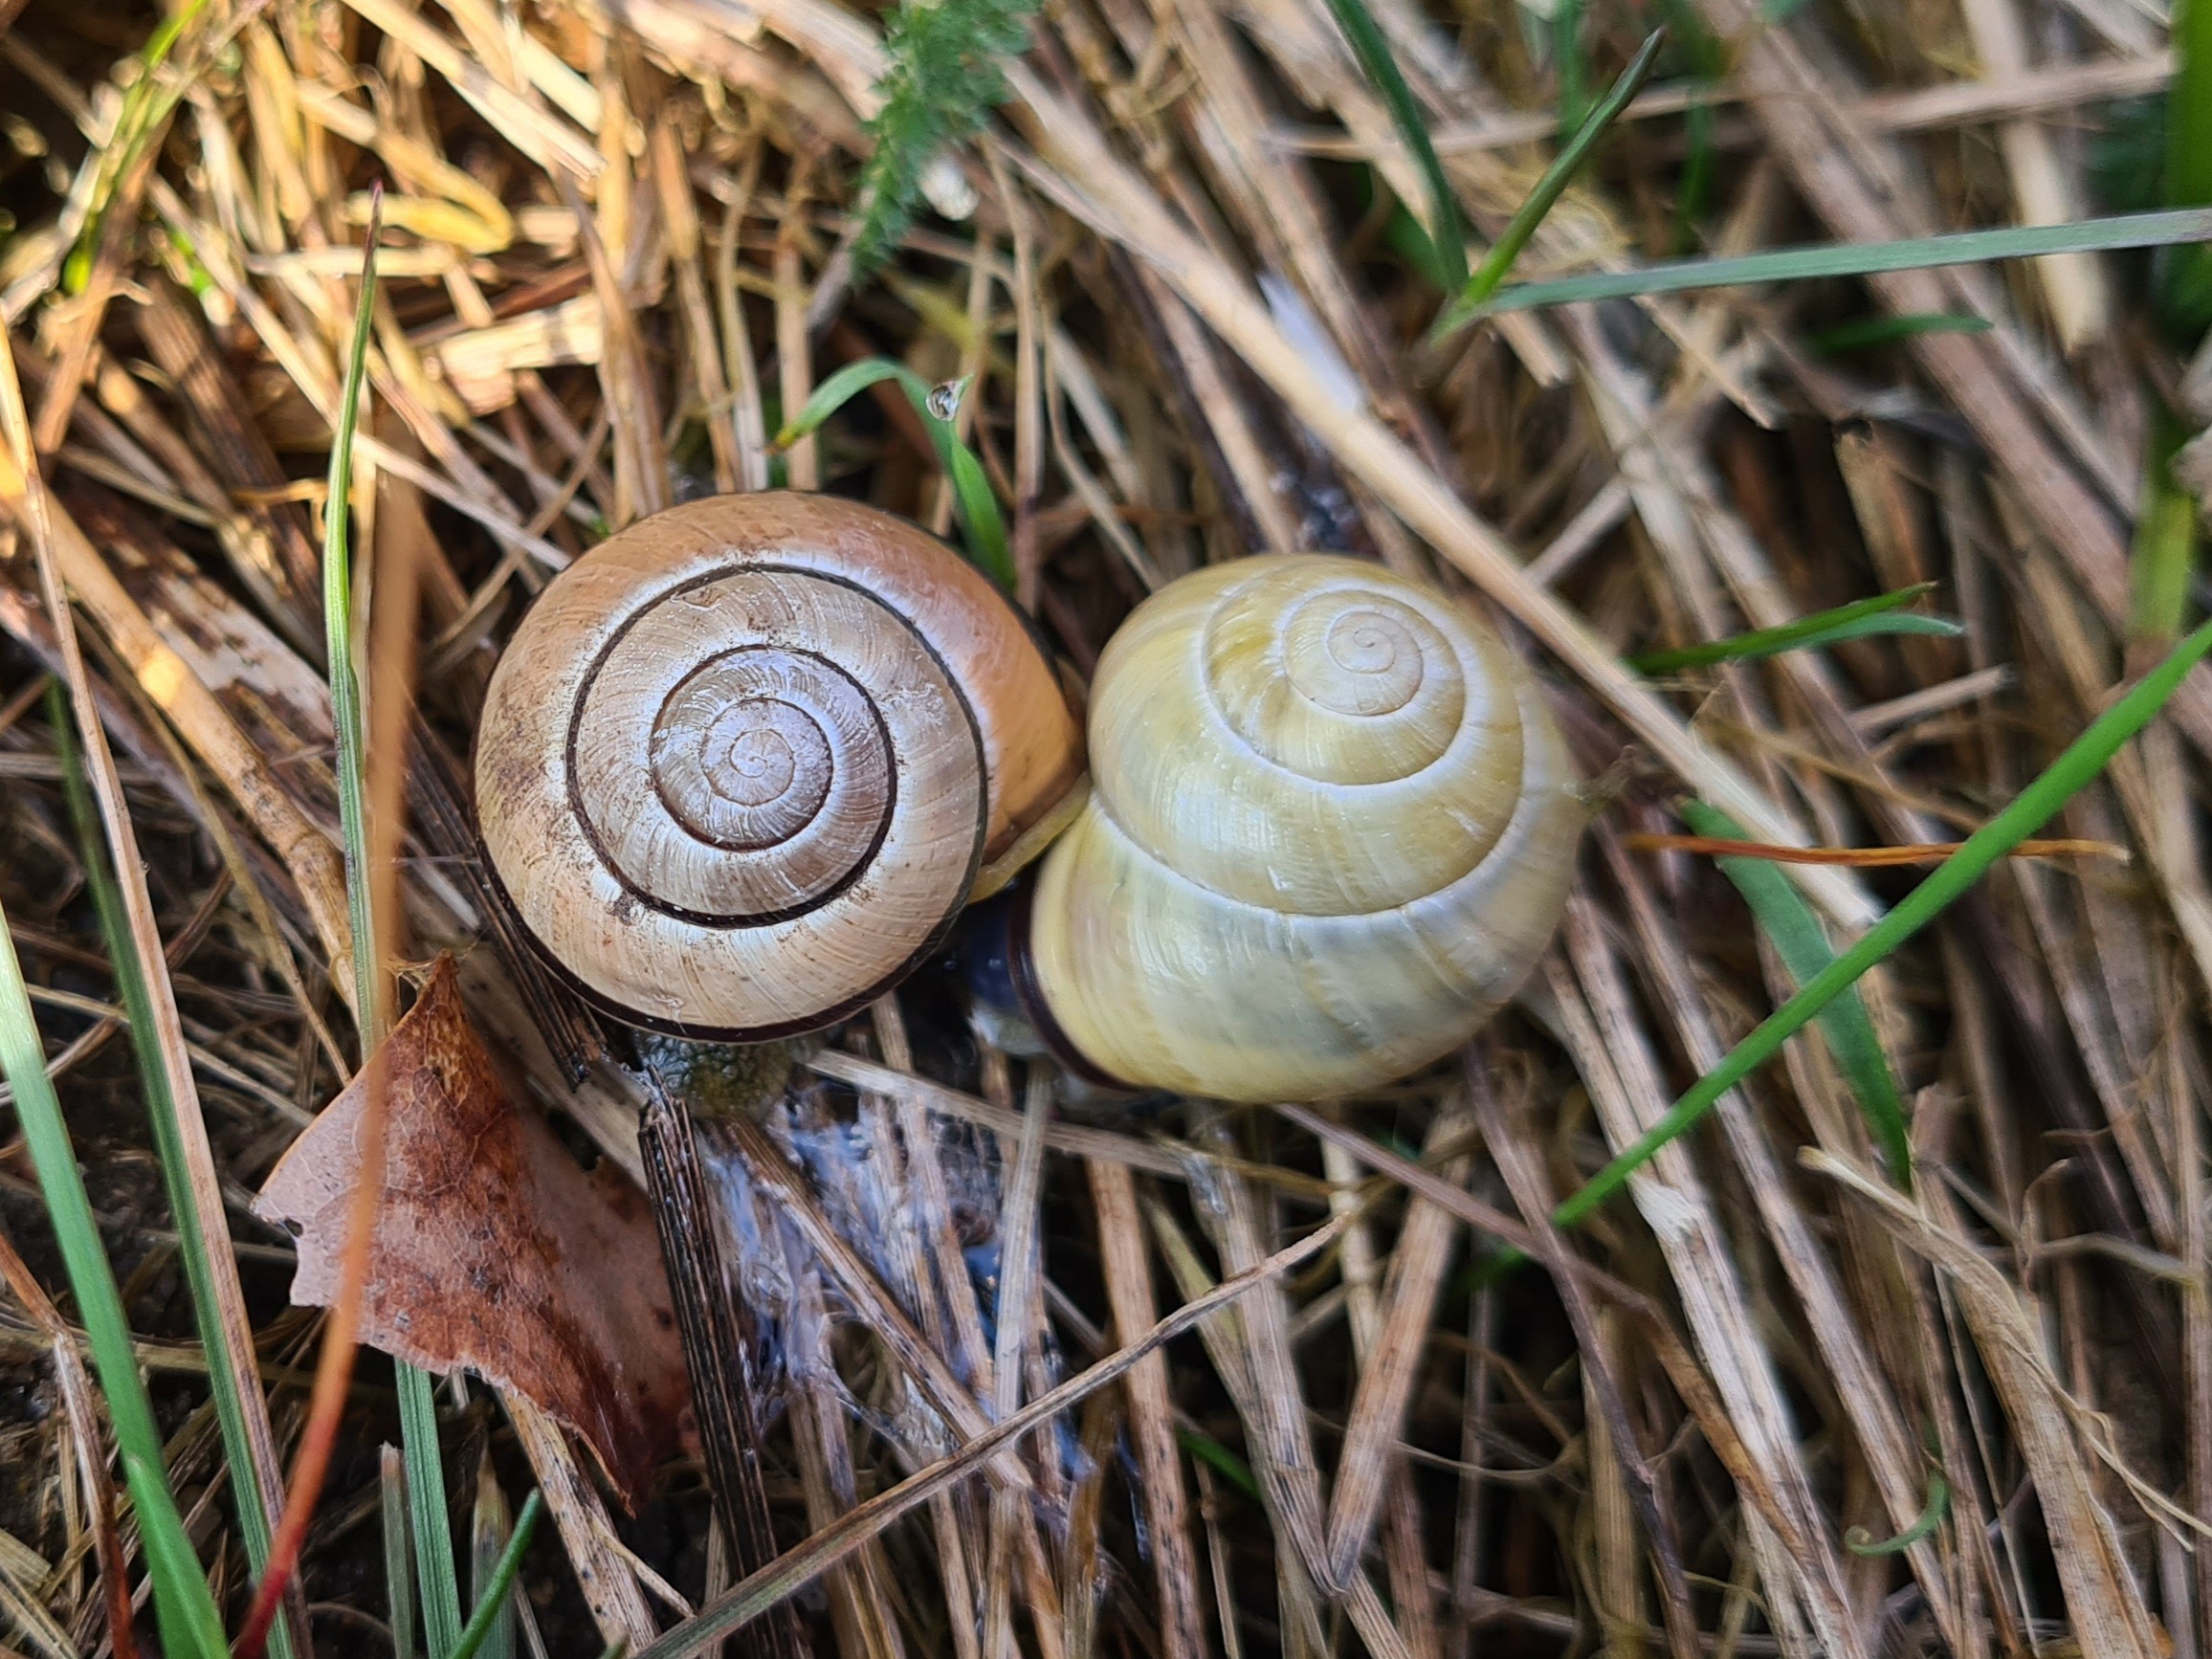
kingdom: Animalia
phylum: Mollusca
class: Gastropoda
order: Stylommatophora
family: Helicidae
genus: Cepaea
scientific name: Cepaea nemoralis
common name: Lundsnegl
